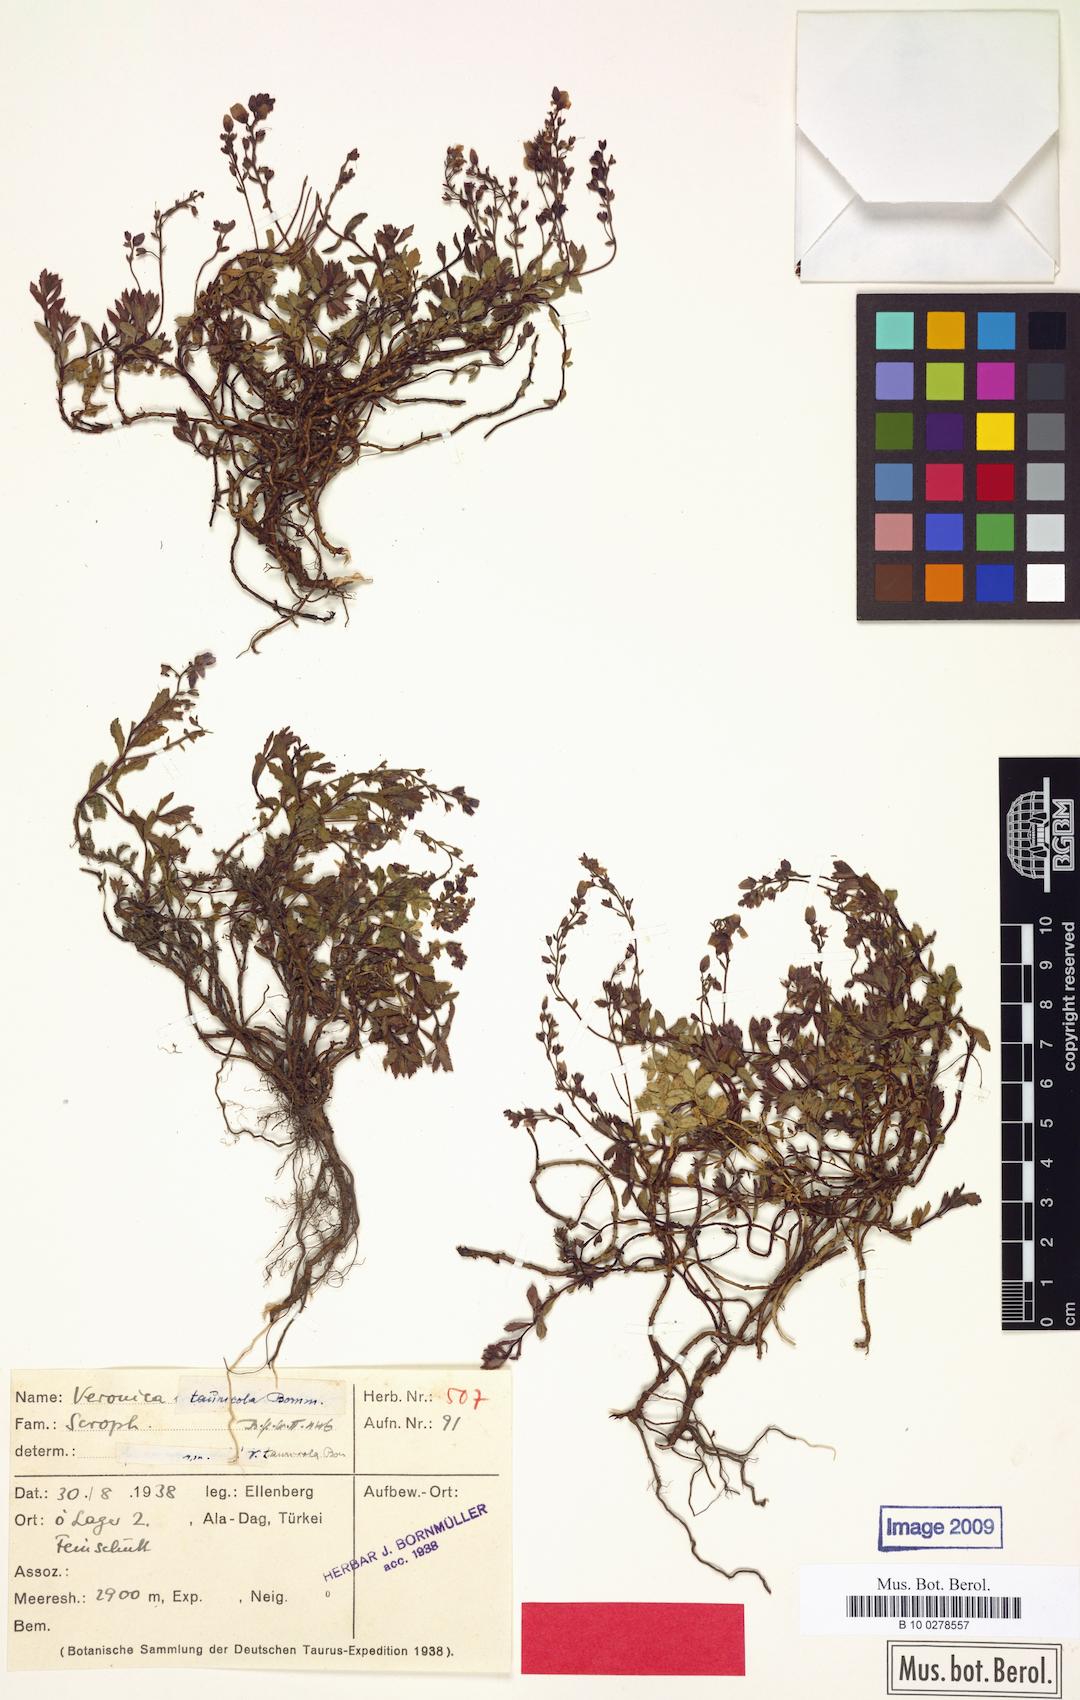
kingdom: Plantae
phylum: Tracheophyta
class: Magnoliopsida
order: Lamiales
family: Plantaginaceae
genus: Veronica
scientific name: Veronica tauricola
